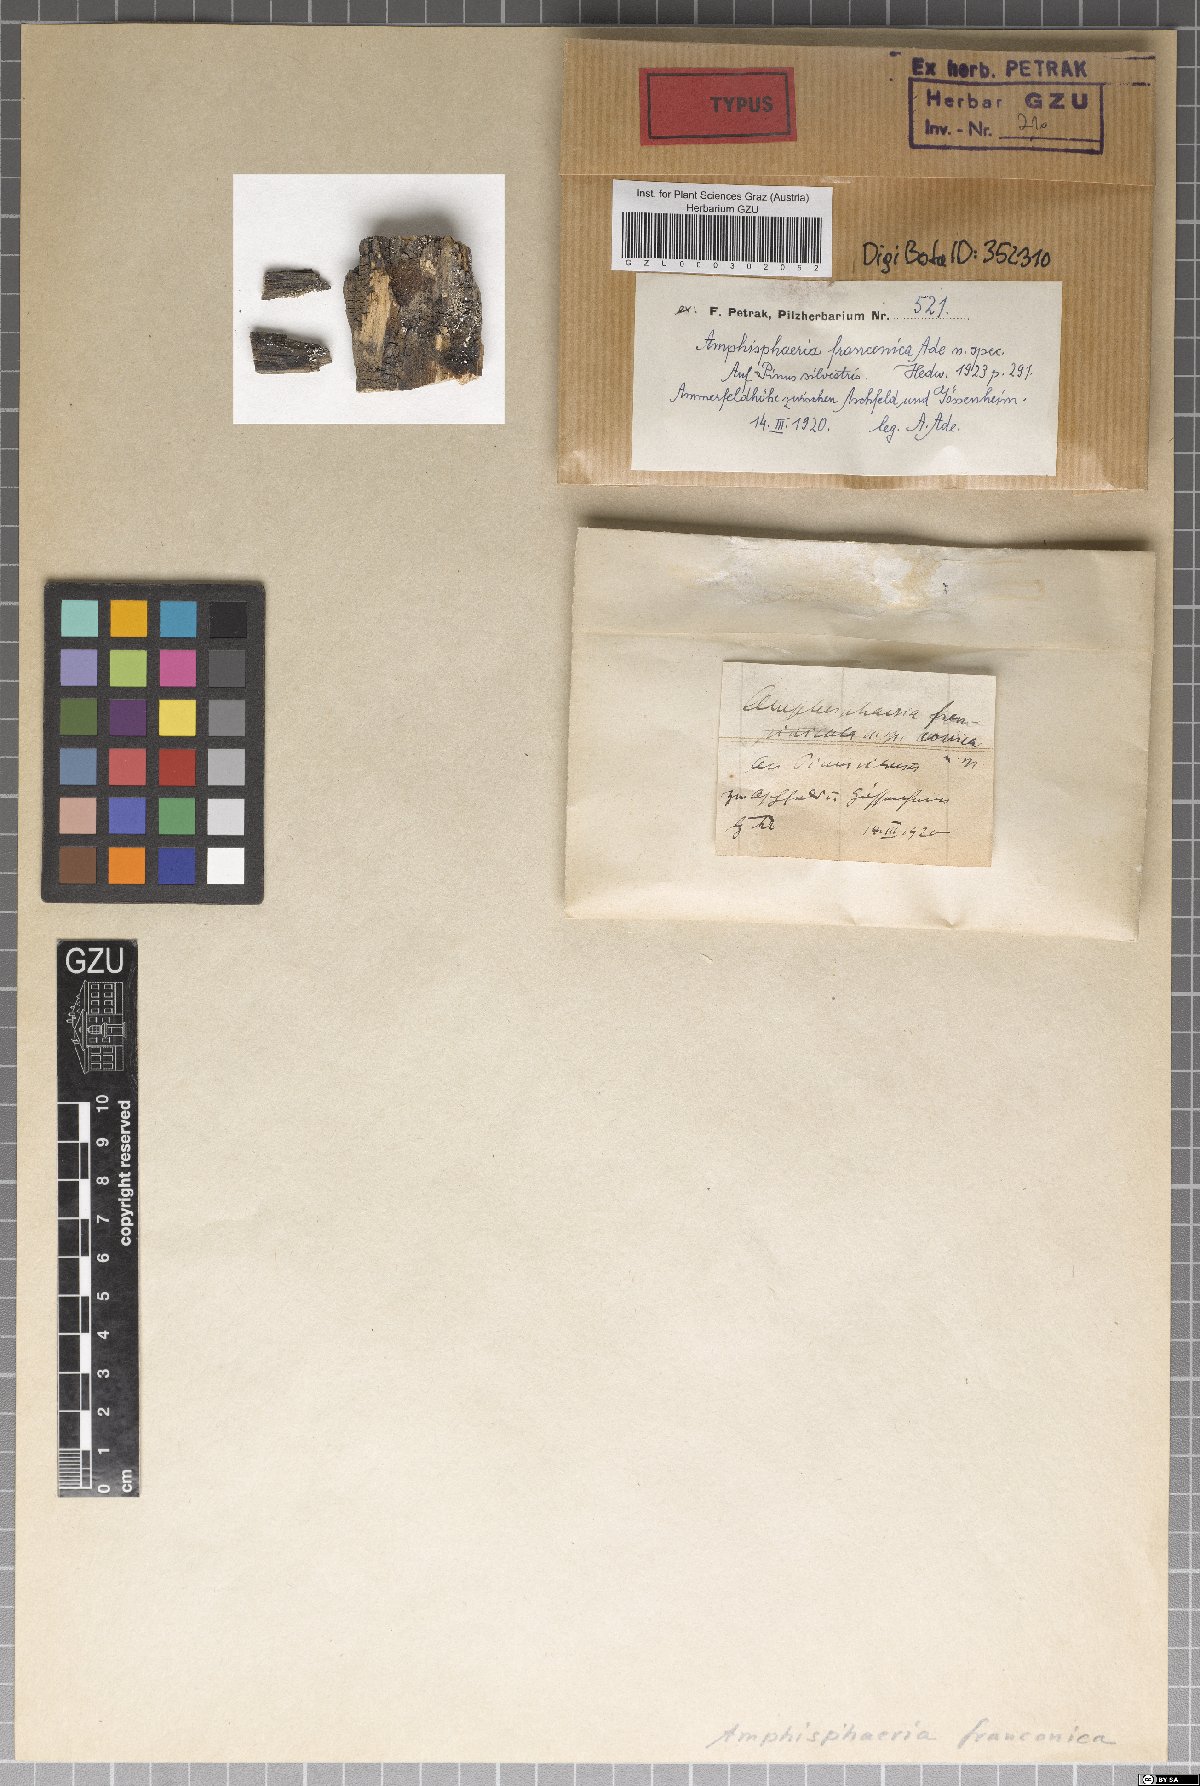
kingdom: Fungi
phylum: Ascomycota
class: Sordariomycetes
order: Amphisphaeriales
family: Amphisphaeriaceae
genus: Amphisphaeria
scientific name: Amphisphaeria franconica
